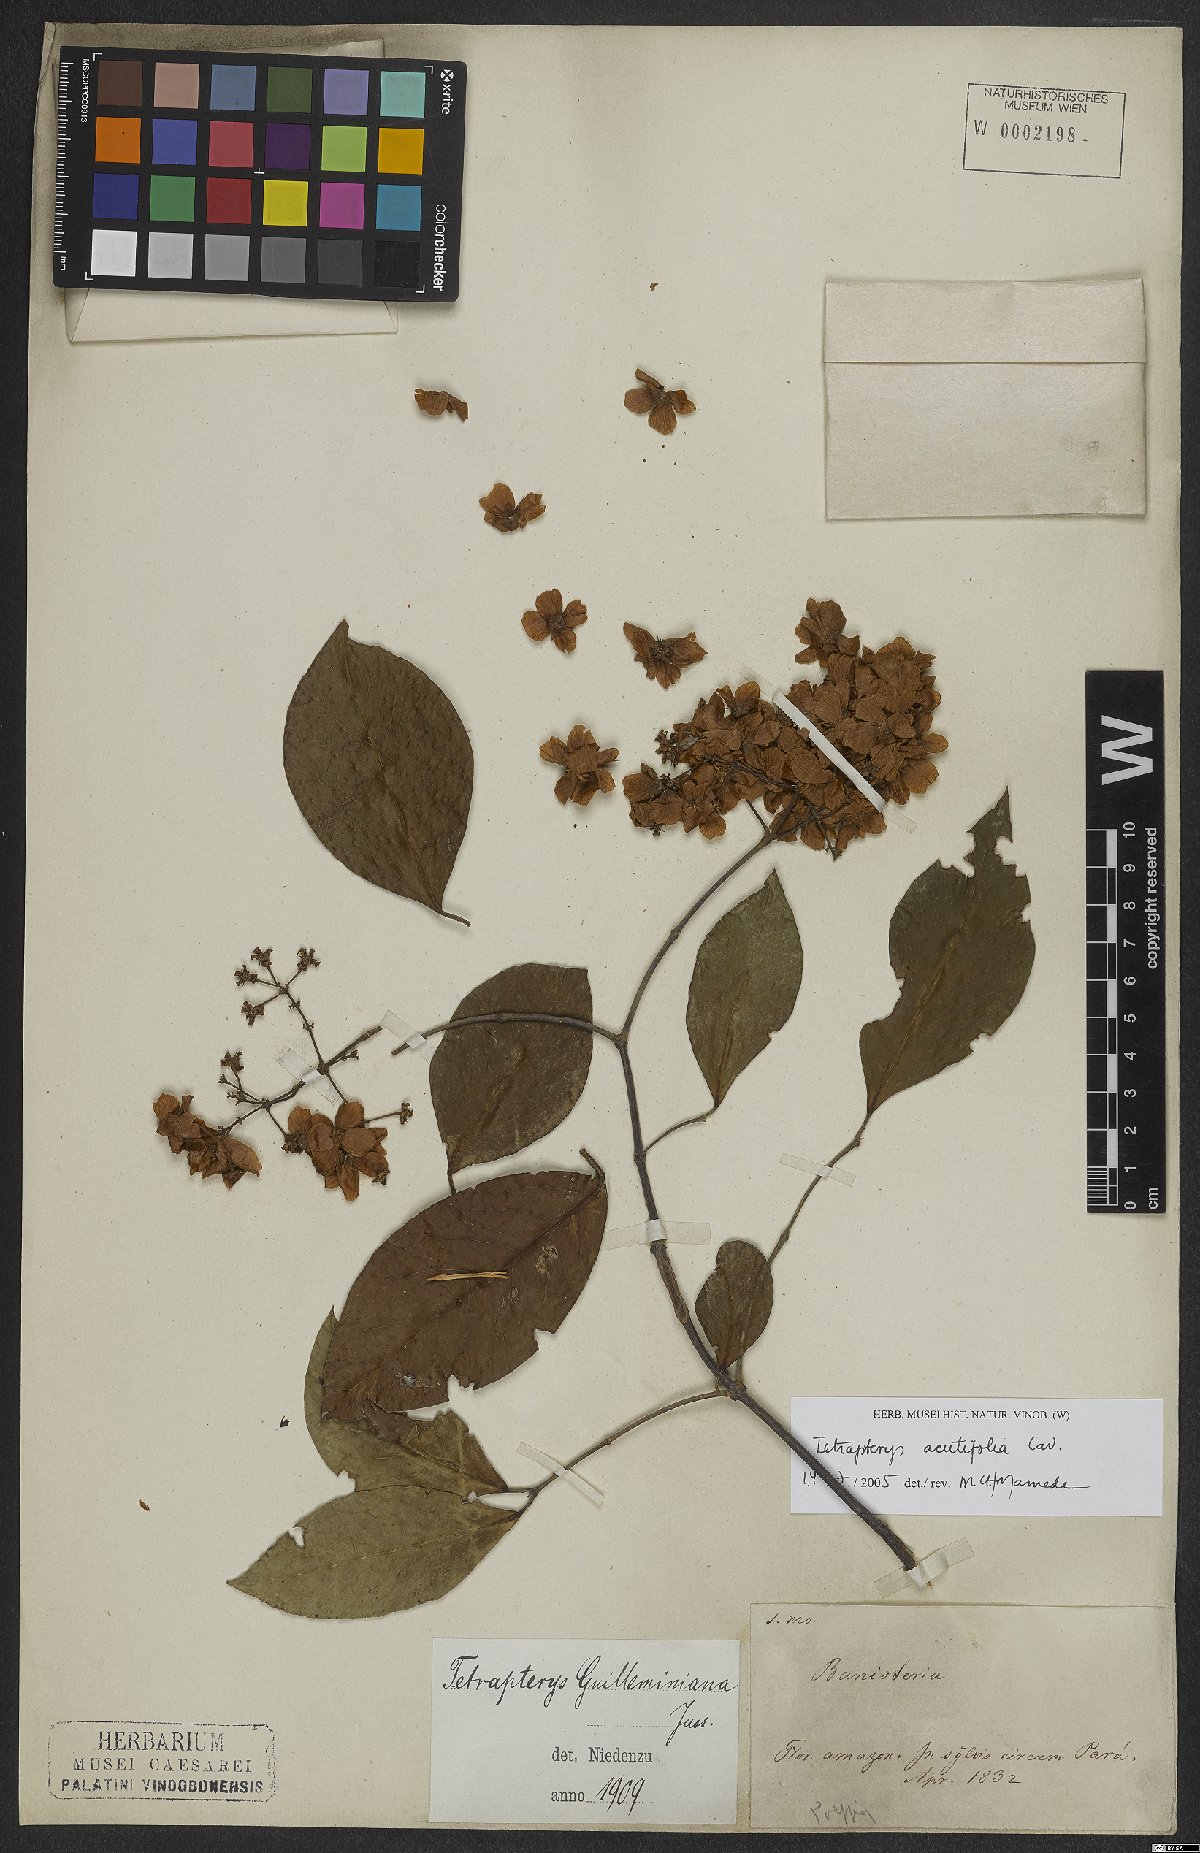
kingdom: Plantae
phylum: Tracheophyta
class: Magnoliopsida
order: Malpighiales
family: Malpighiaceae
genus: Niedenzuella
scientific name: Niedenzuella acutifolia
